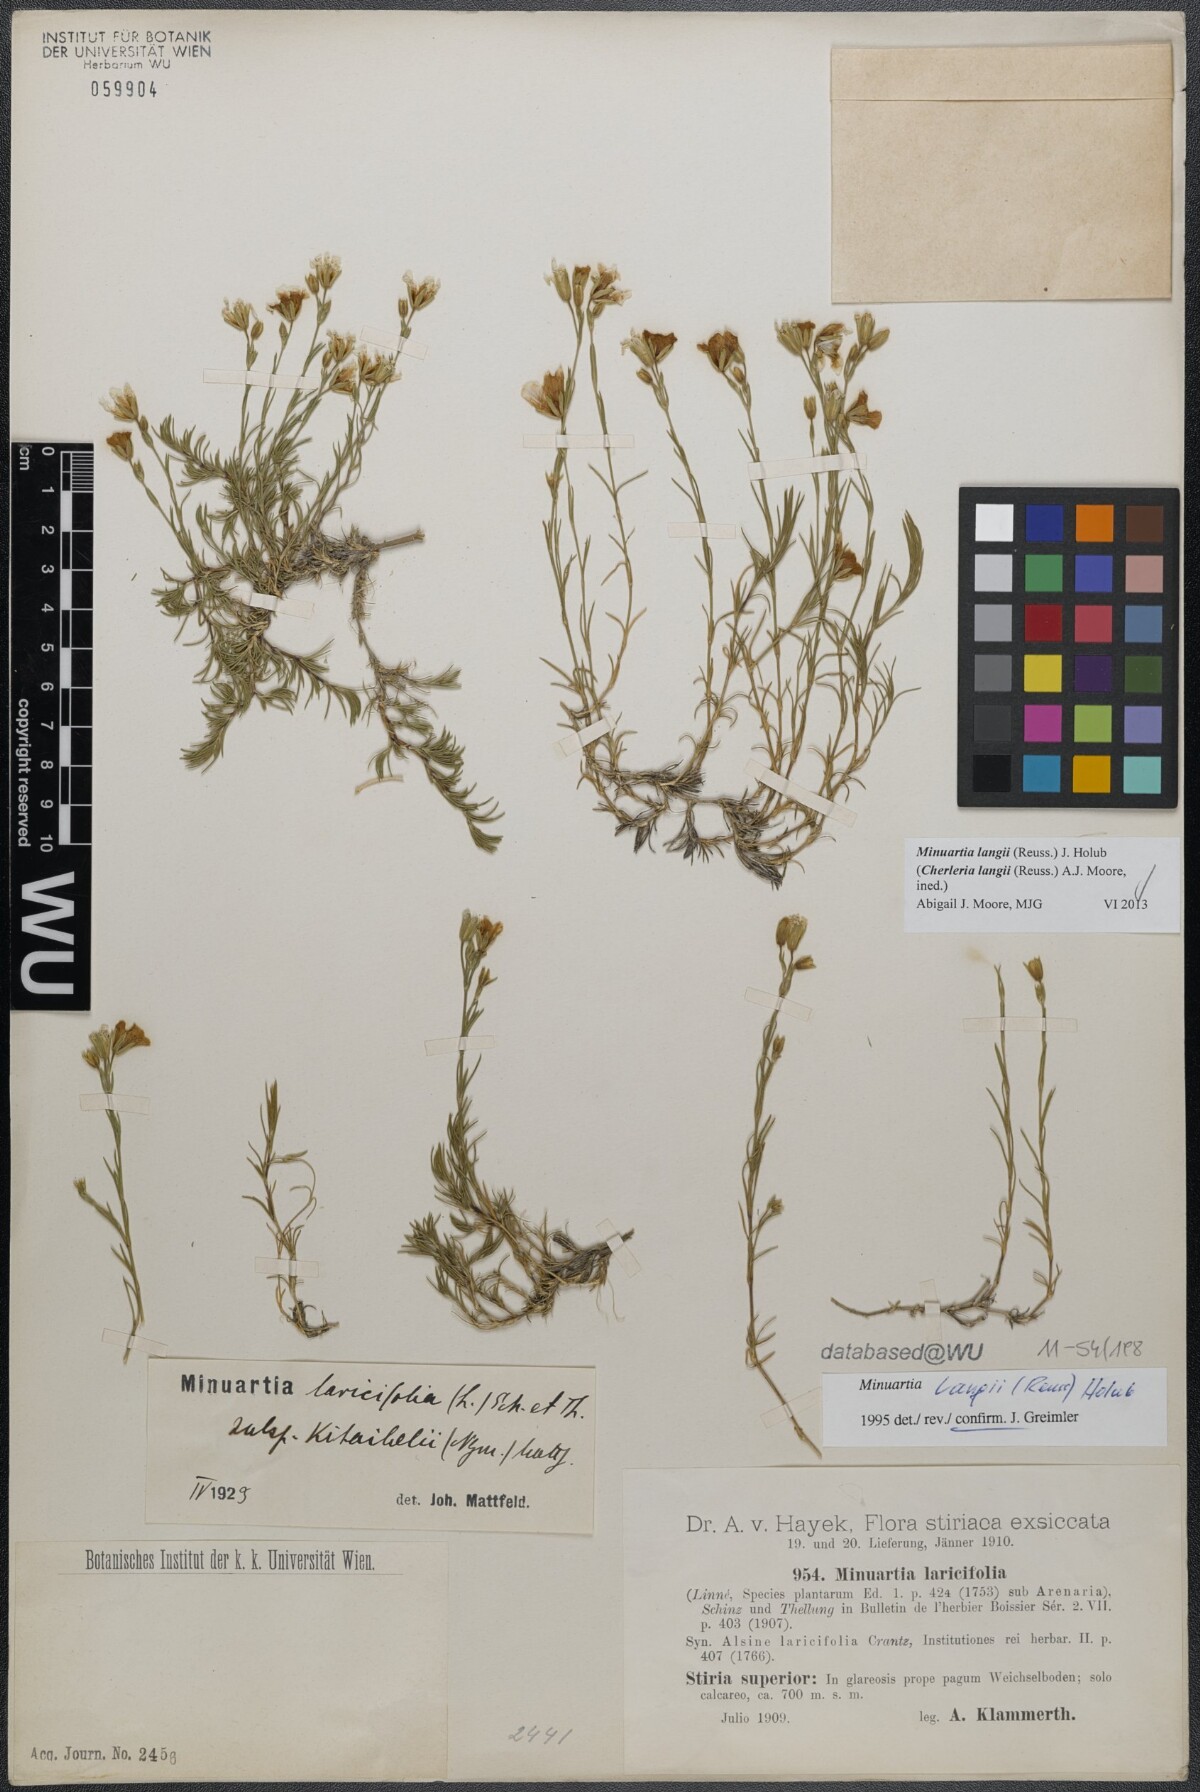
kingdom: Plantae
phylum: Tracheophyta
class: Magnoliopsida
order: Caryophyllales
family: Caryophyllaceae
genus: Cherleria
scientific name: Cherleria langii
